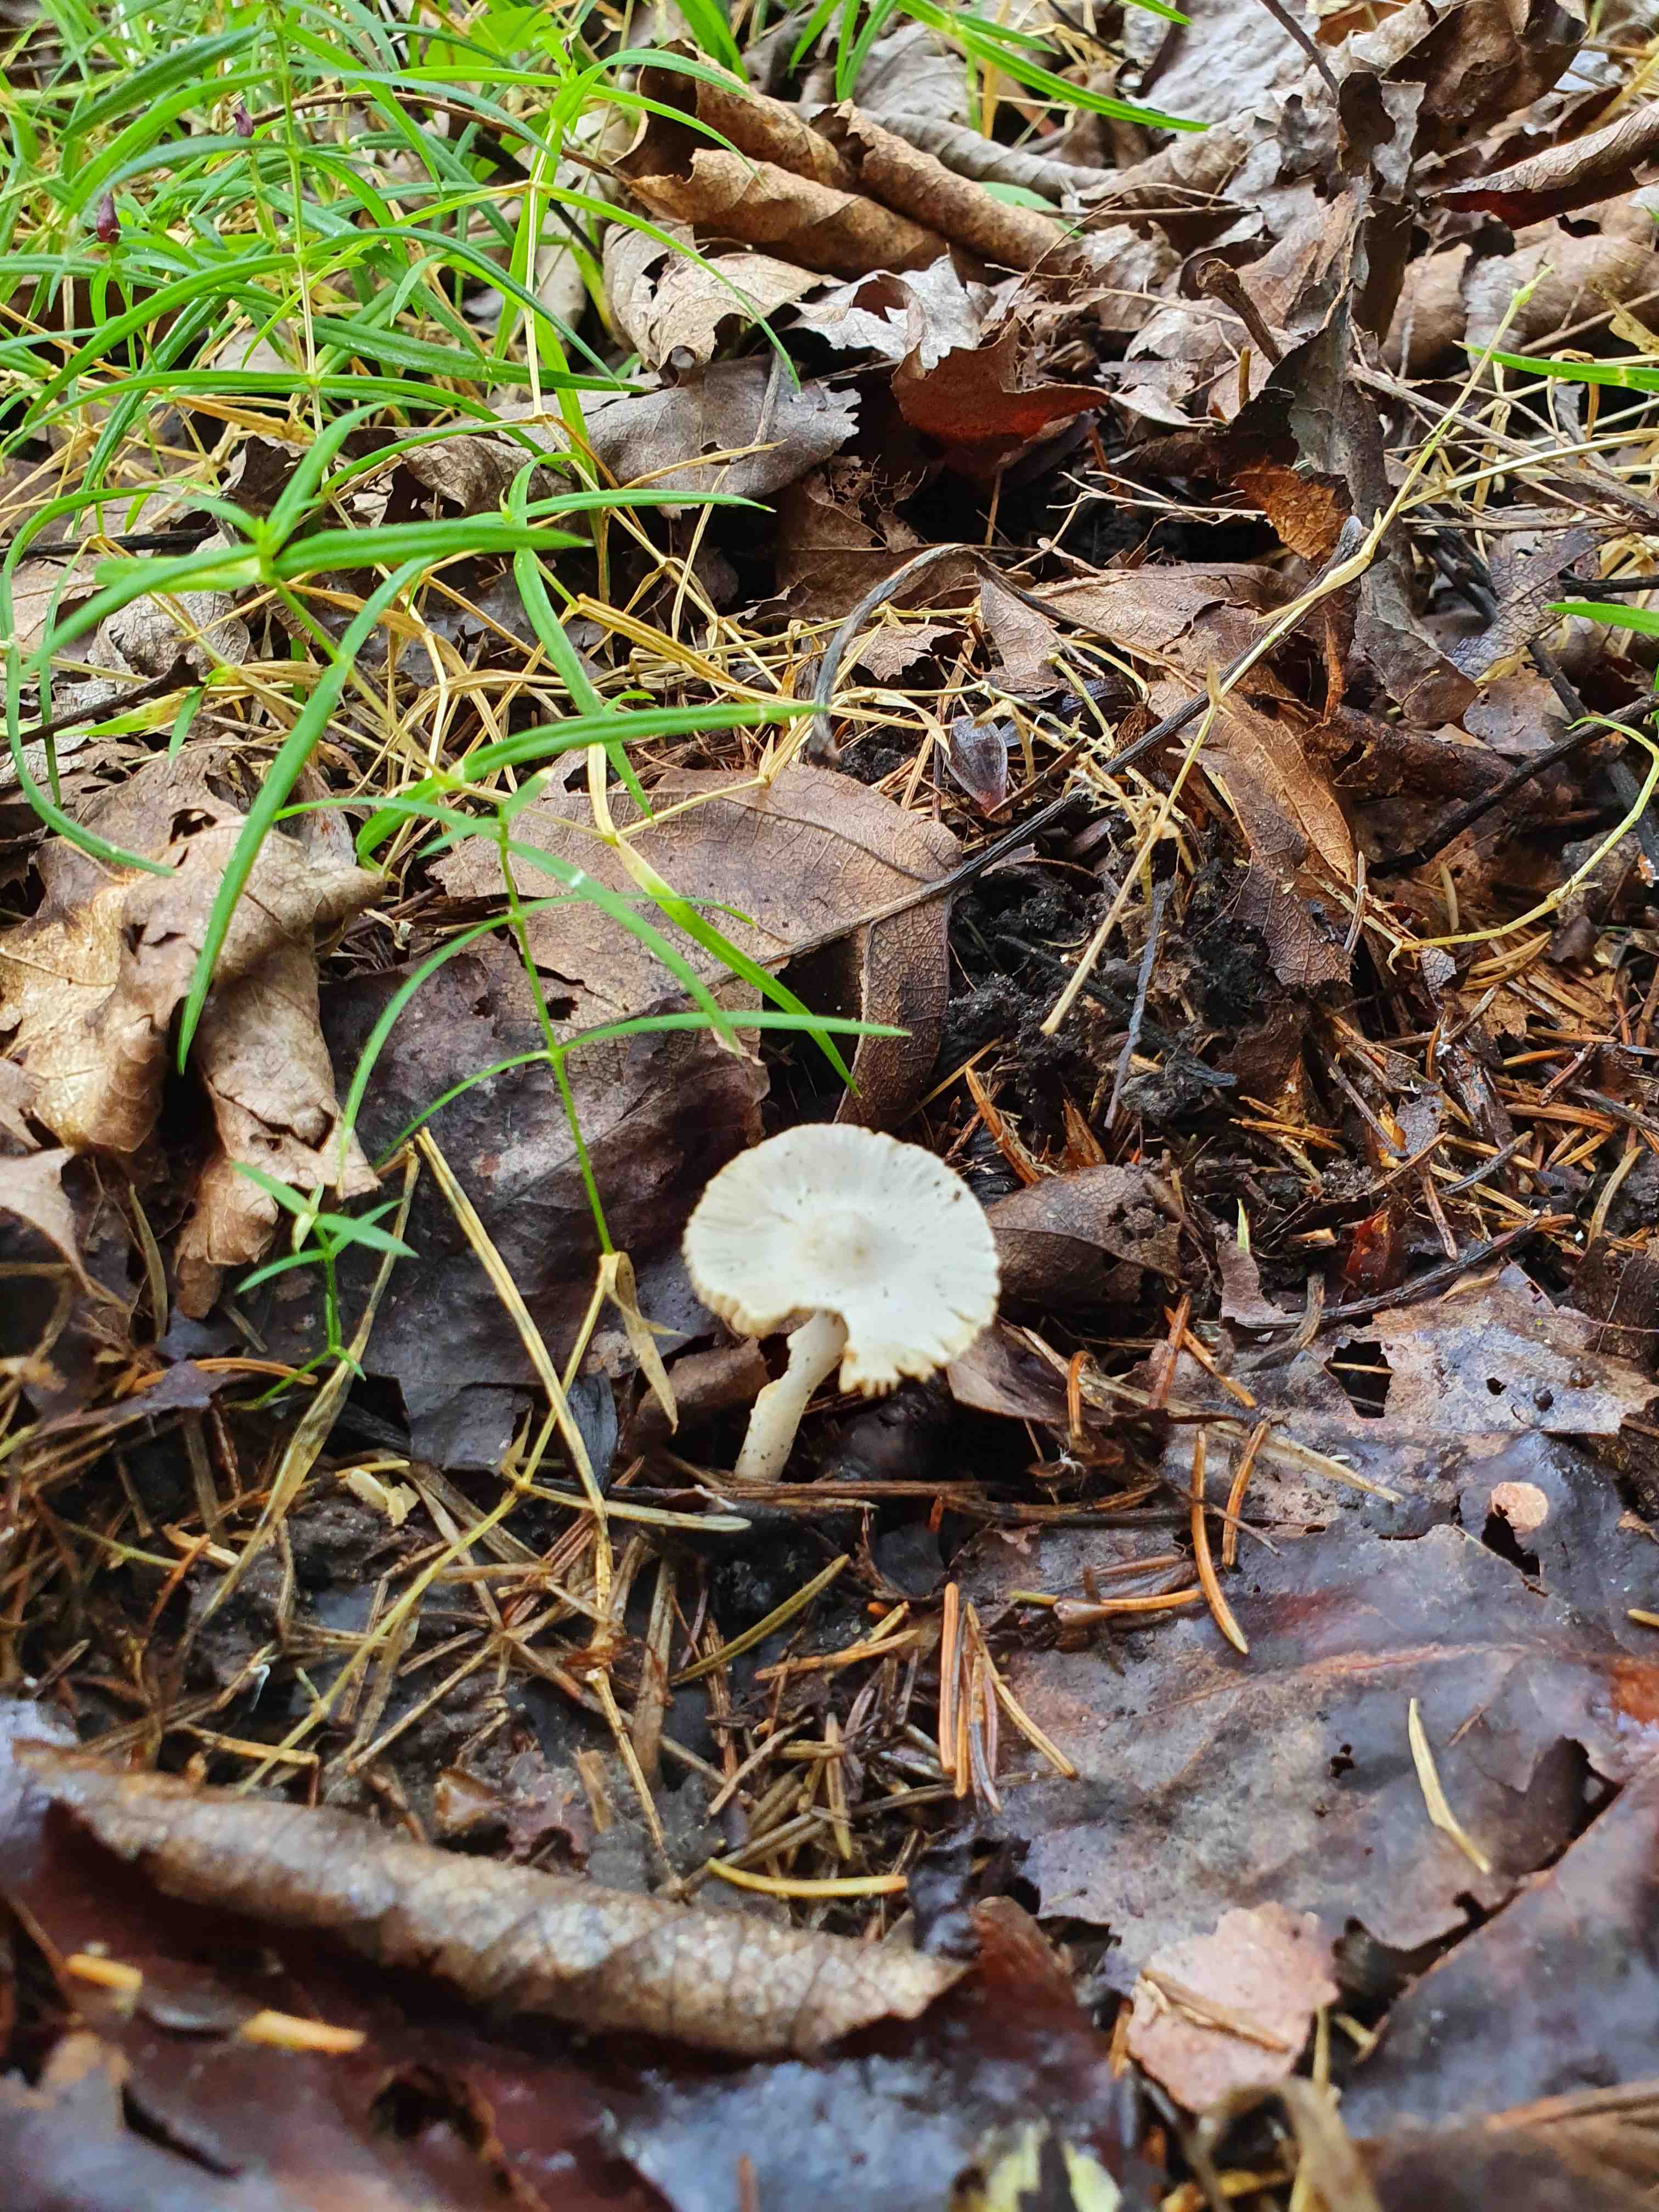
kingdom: Fungi
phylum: Basidiomycota
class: Agaricomycetes
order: Agaricales
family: Inocybaceae
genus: Inocybe
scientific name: Inocybe
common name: almindelig trævlhat
